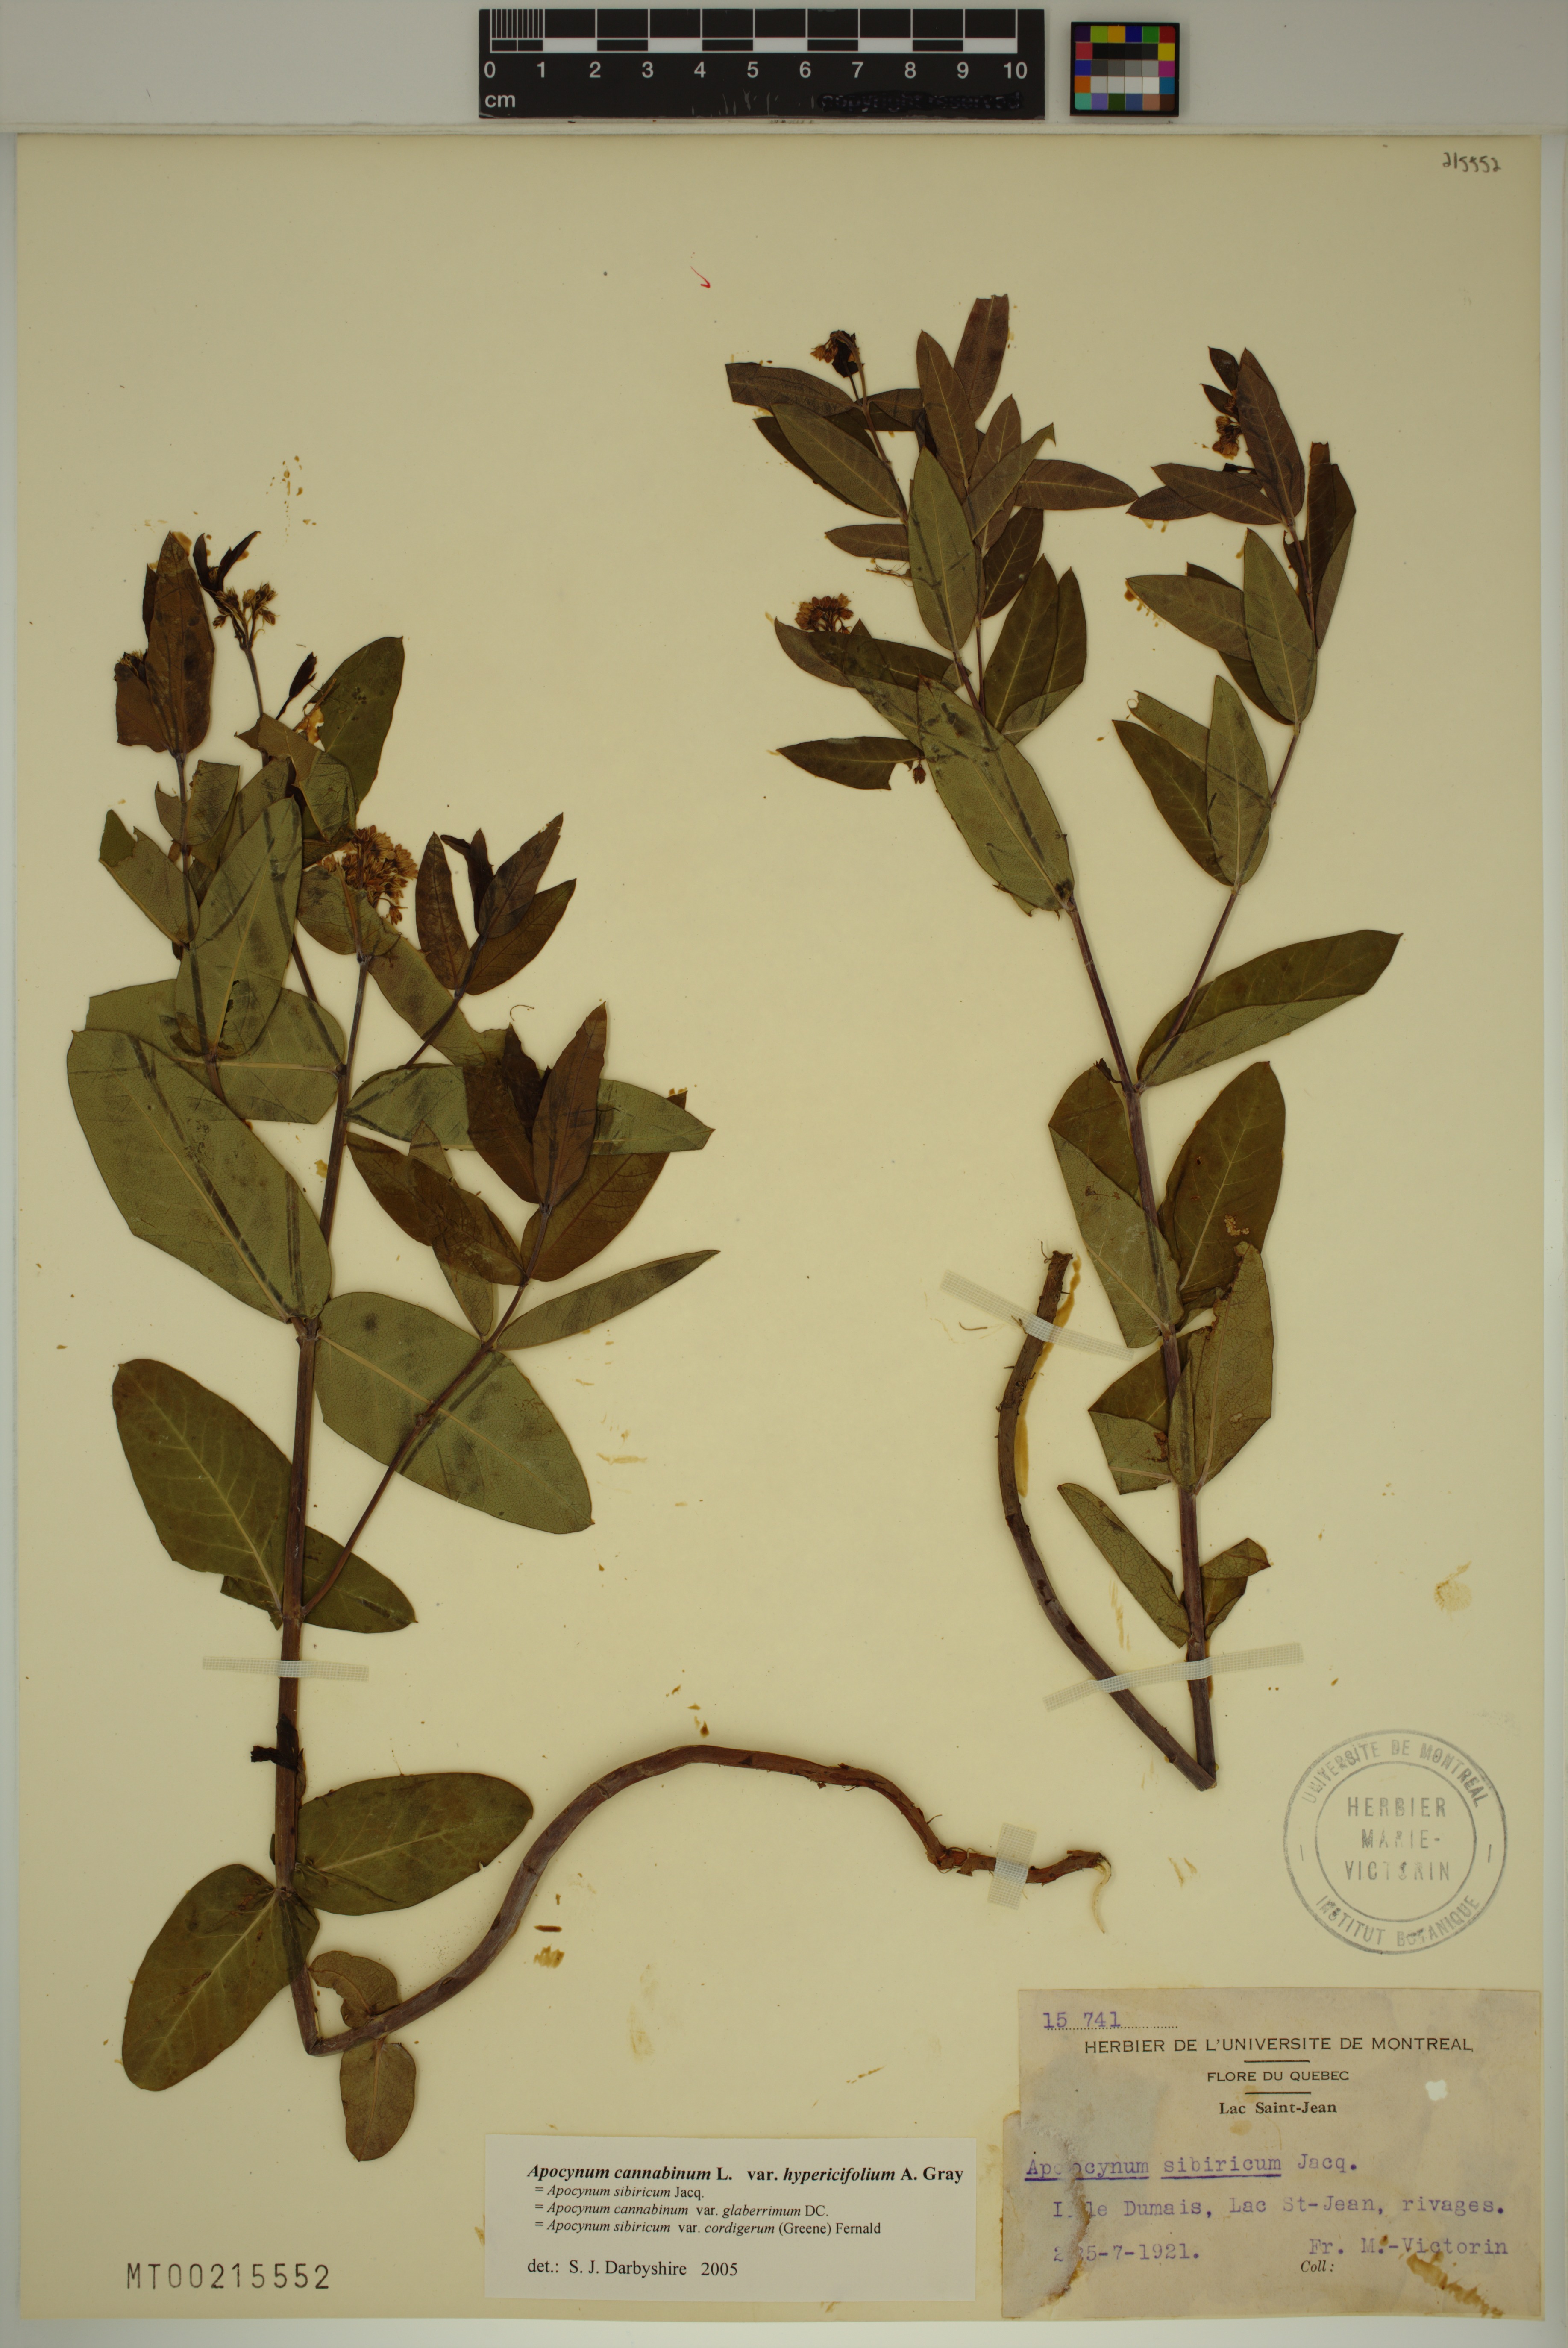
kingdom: Plantae
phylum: Tracheophyta
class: Magnoliopsida
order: Gentianales
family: Apocynaceae
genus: Apocynum
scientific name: Apocynum cannabinum
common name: Hemp dogbane
